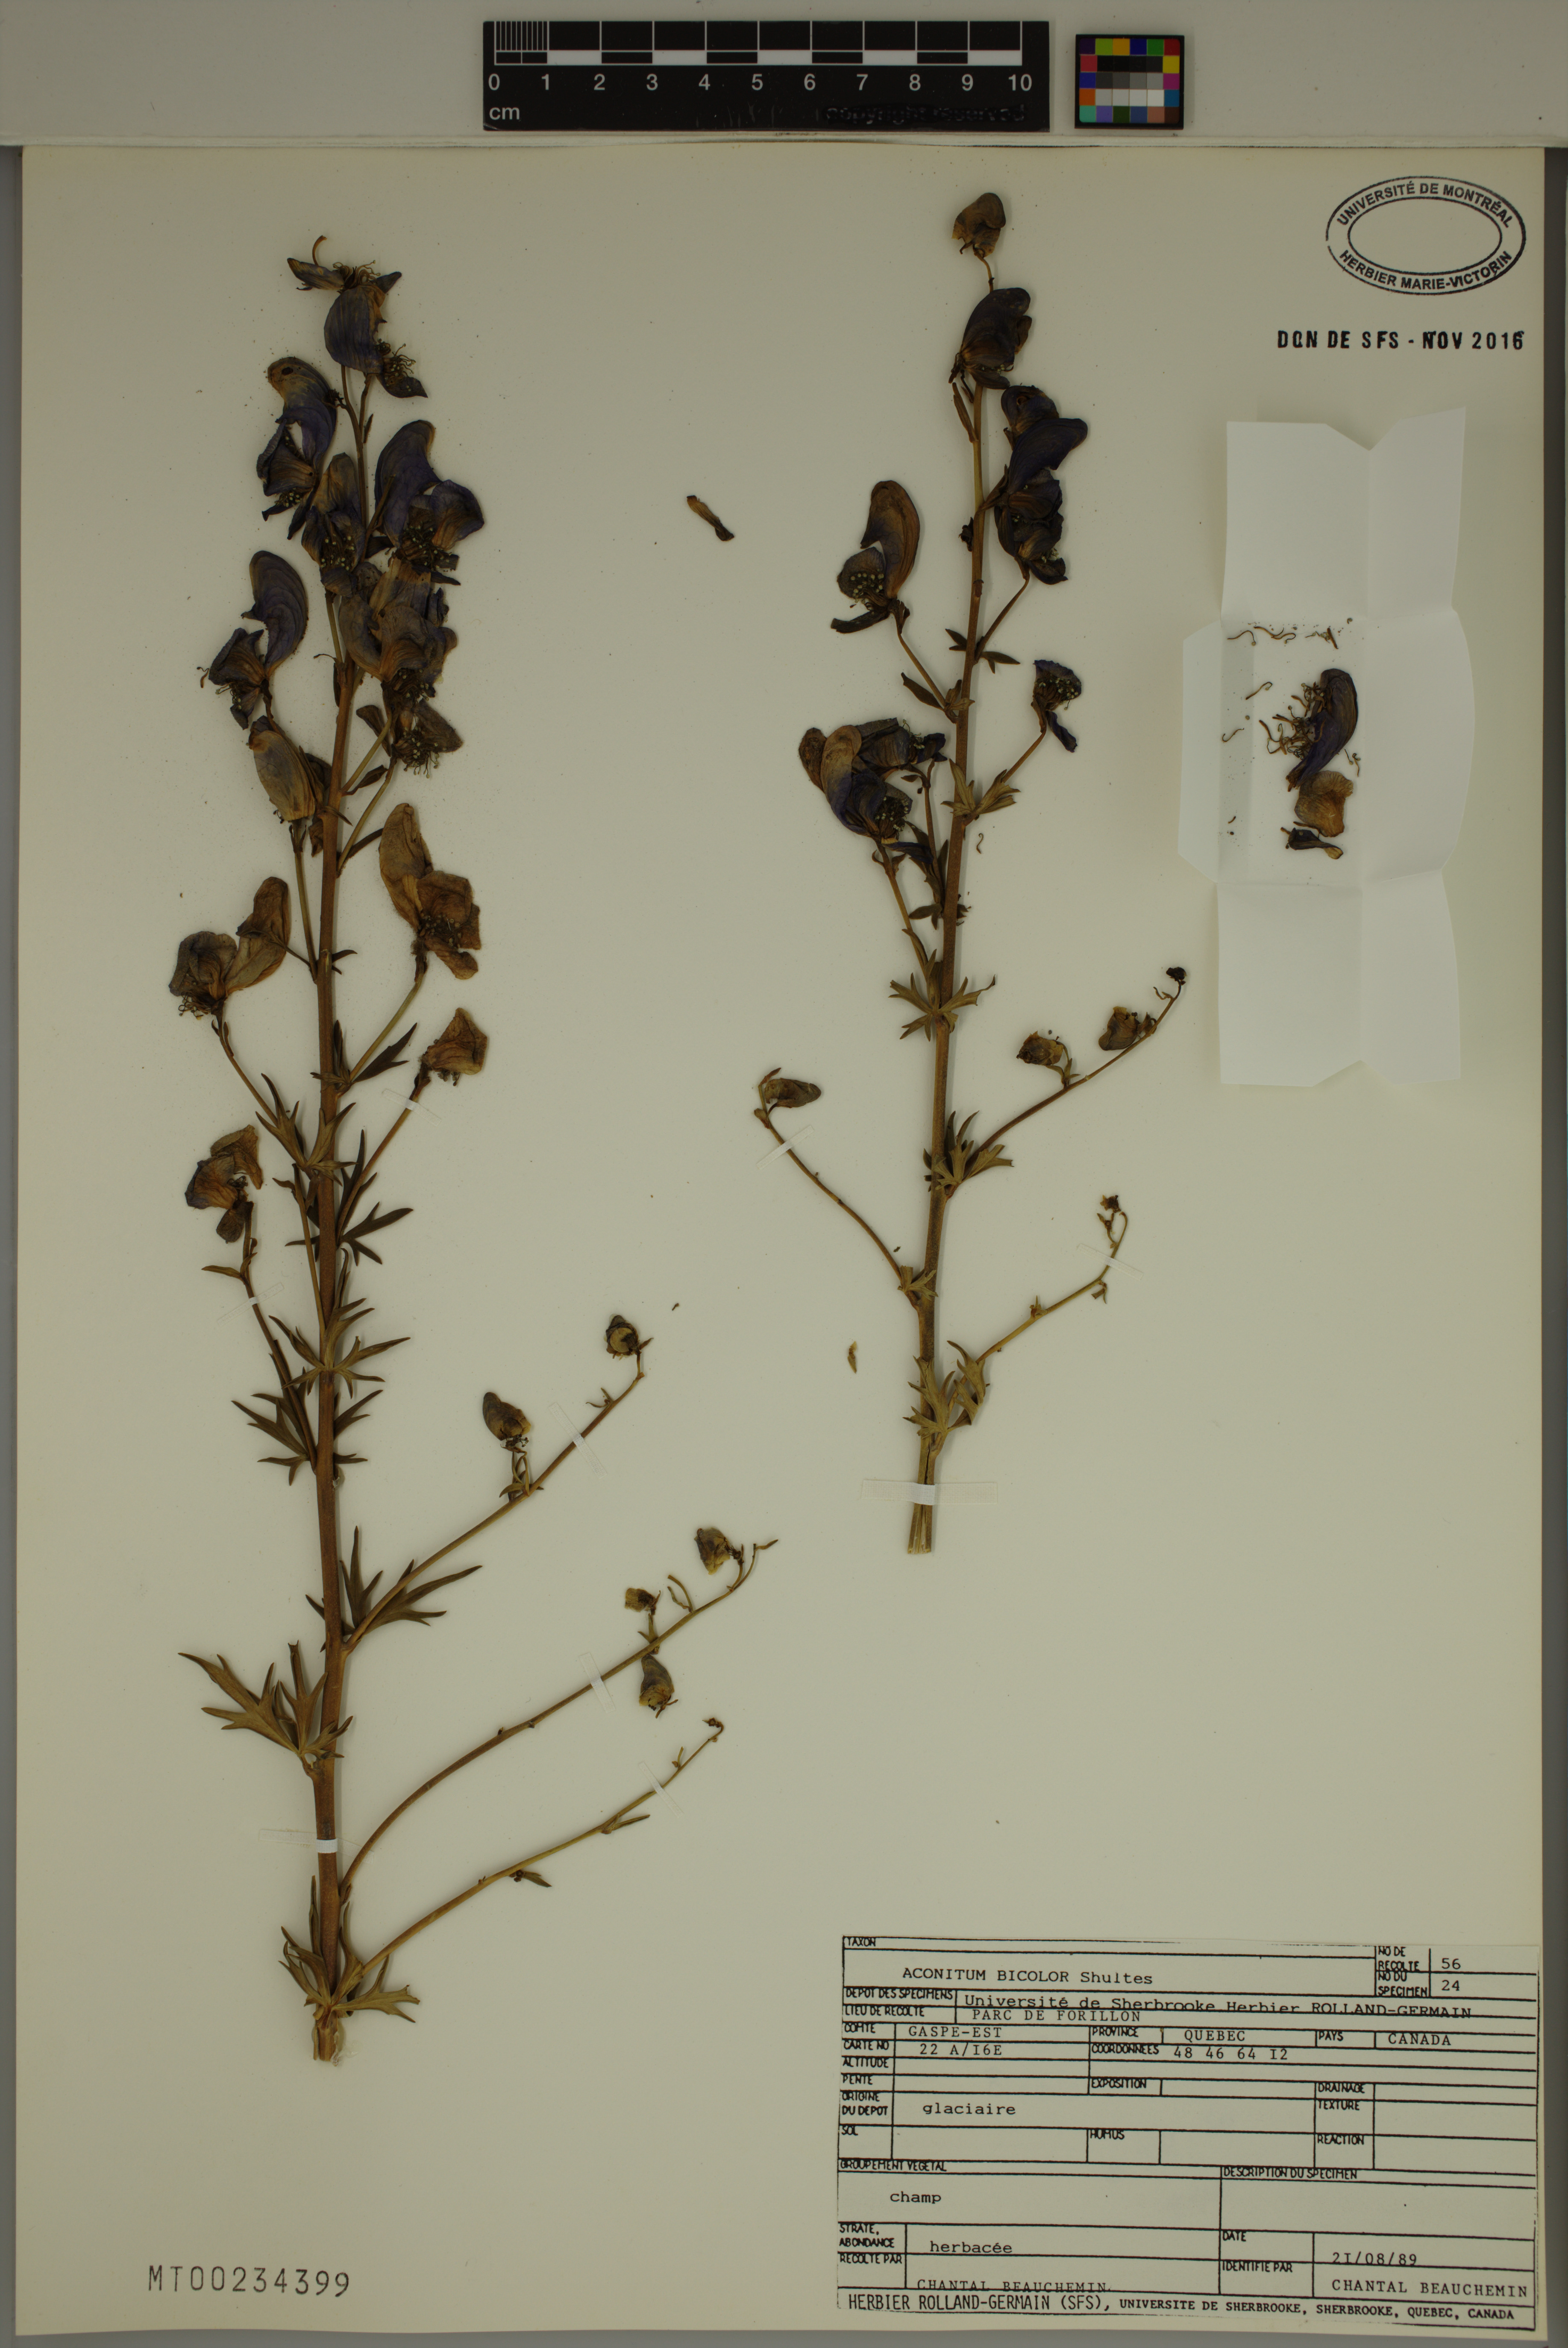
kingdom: Plantae
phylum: Tracheophyta
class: Magnoliopsida
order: Ranunculales
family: Ranunculaceae
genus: Aconitum
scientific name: Aconitum cammarum
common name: Hybrid monk's-hood
